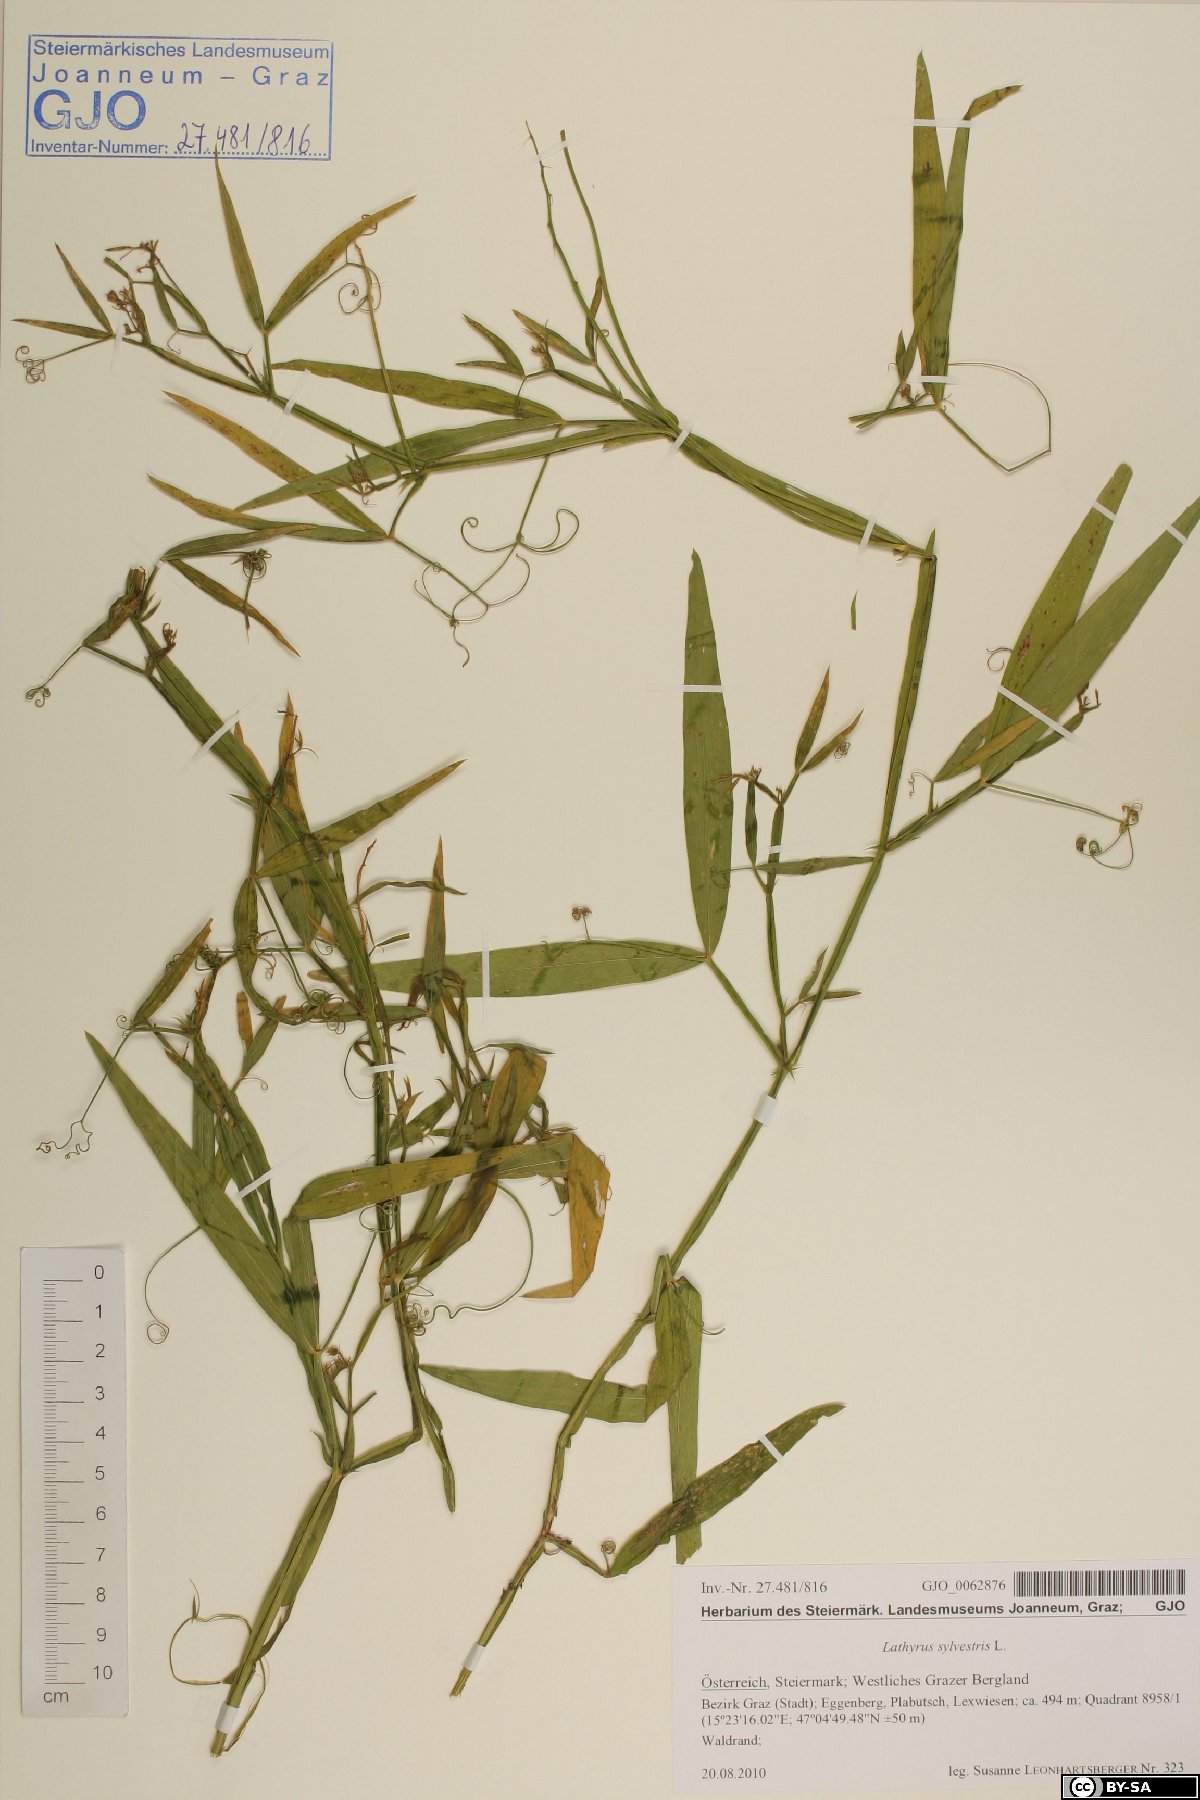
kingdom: Plantae
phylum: Tracheophyta
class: Magnoliopsida
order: Fabales
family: Fabaceae
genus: Lathyrus
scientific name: Lathyrus sylvestris
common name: Flat pea
